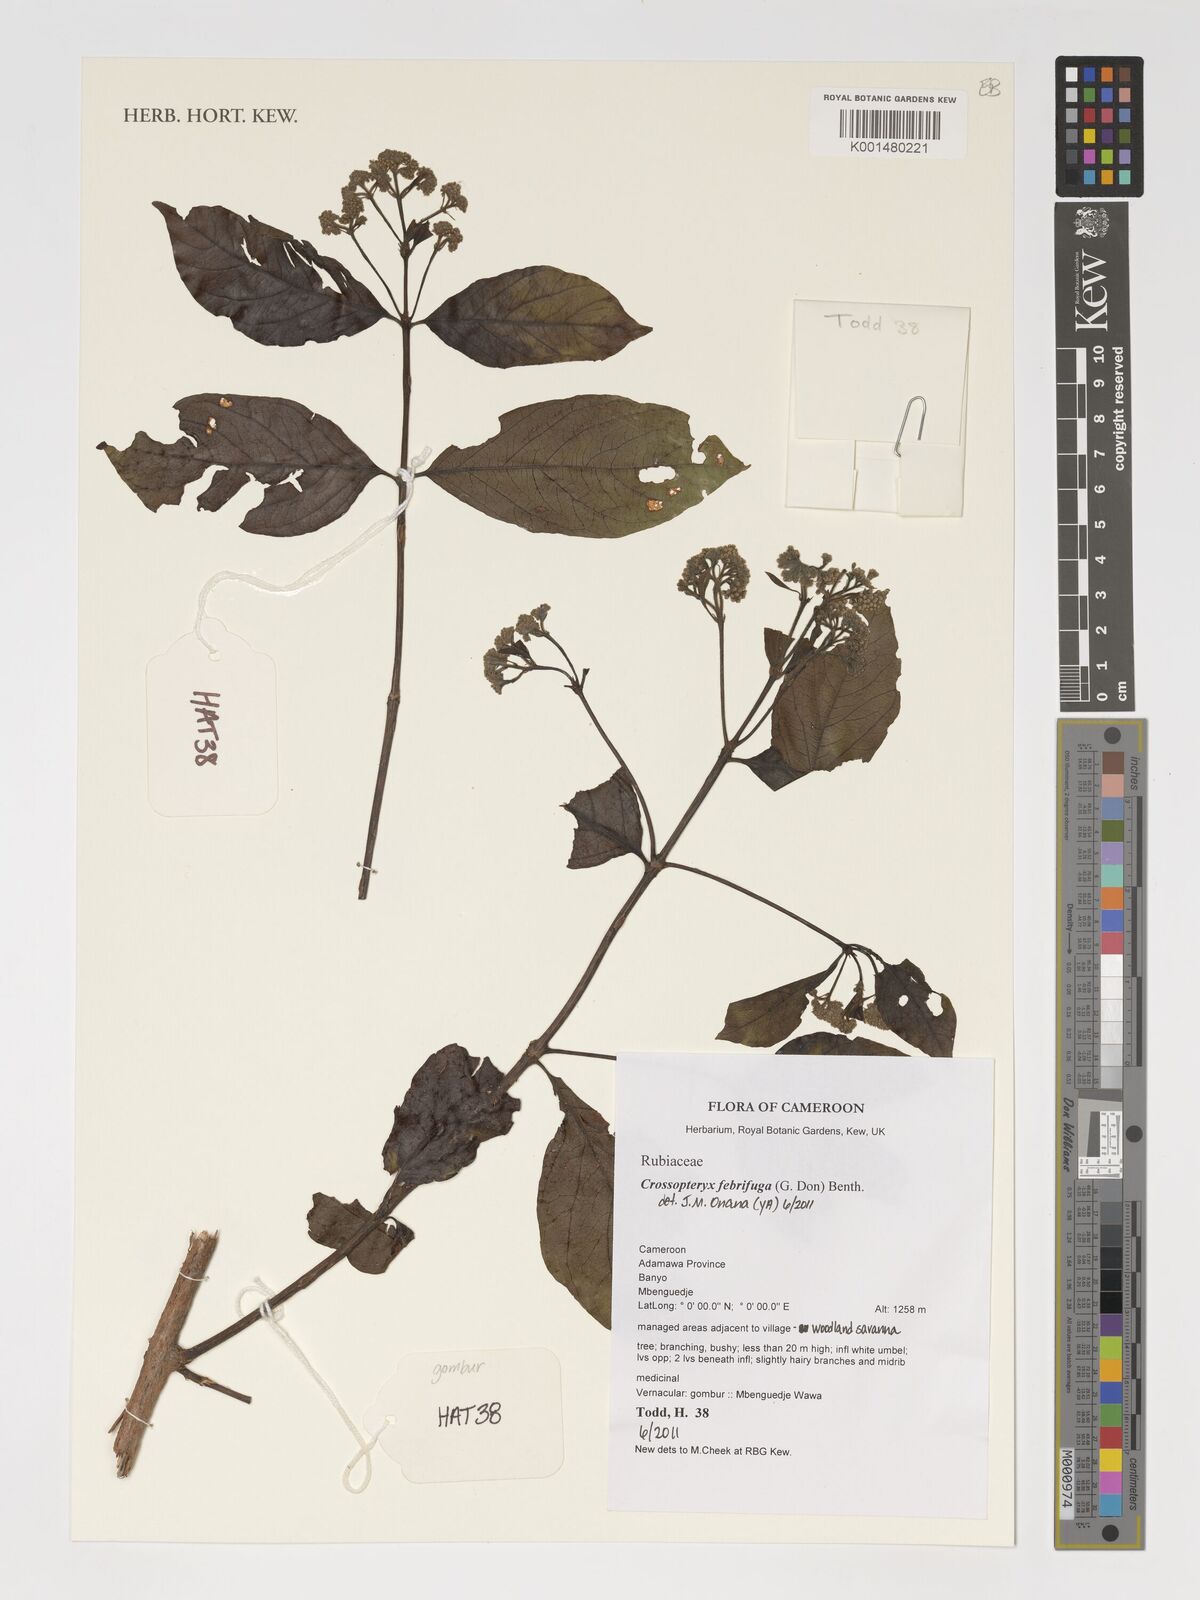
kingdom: Plantae
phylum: Tracheophyta
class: Magnoliopsida
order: Gentianales
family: Rubiaceae
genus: Crossopteryx
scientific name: Crossopteryx febrifuga
